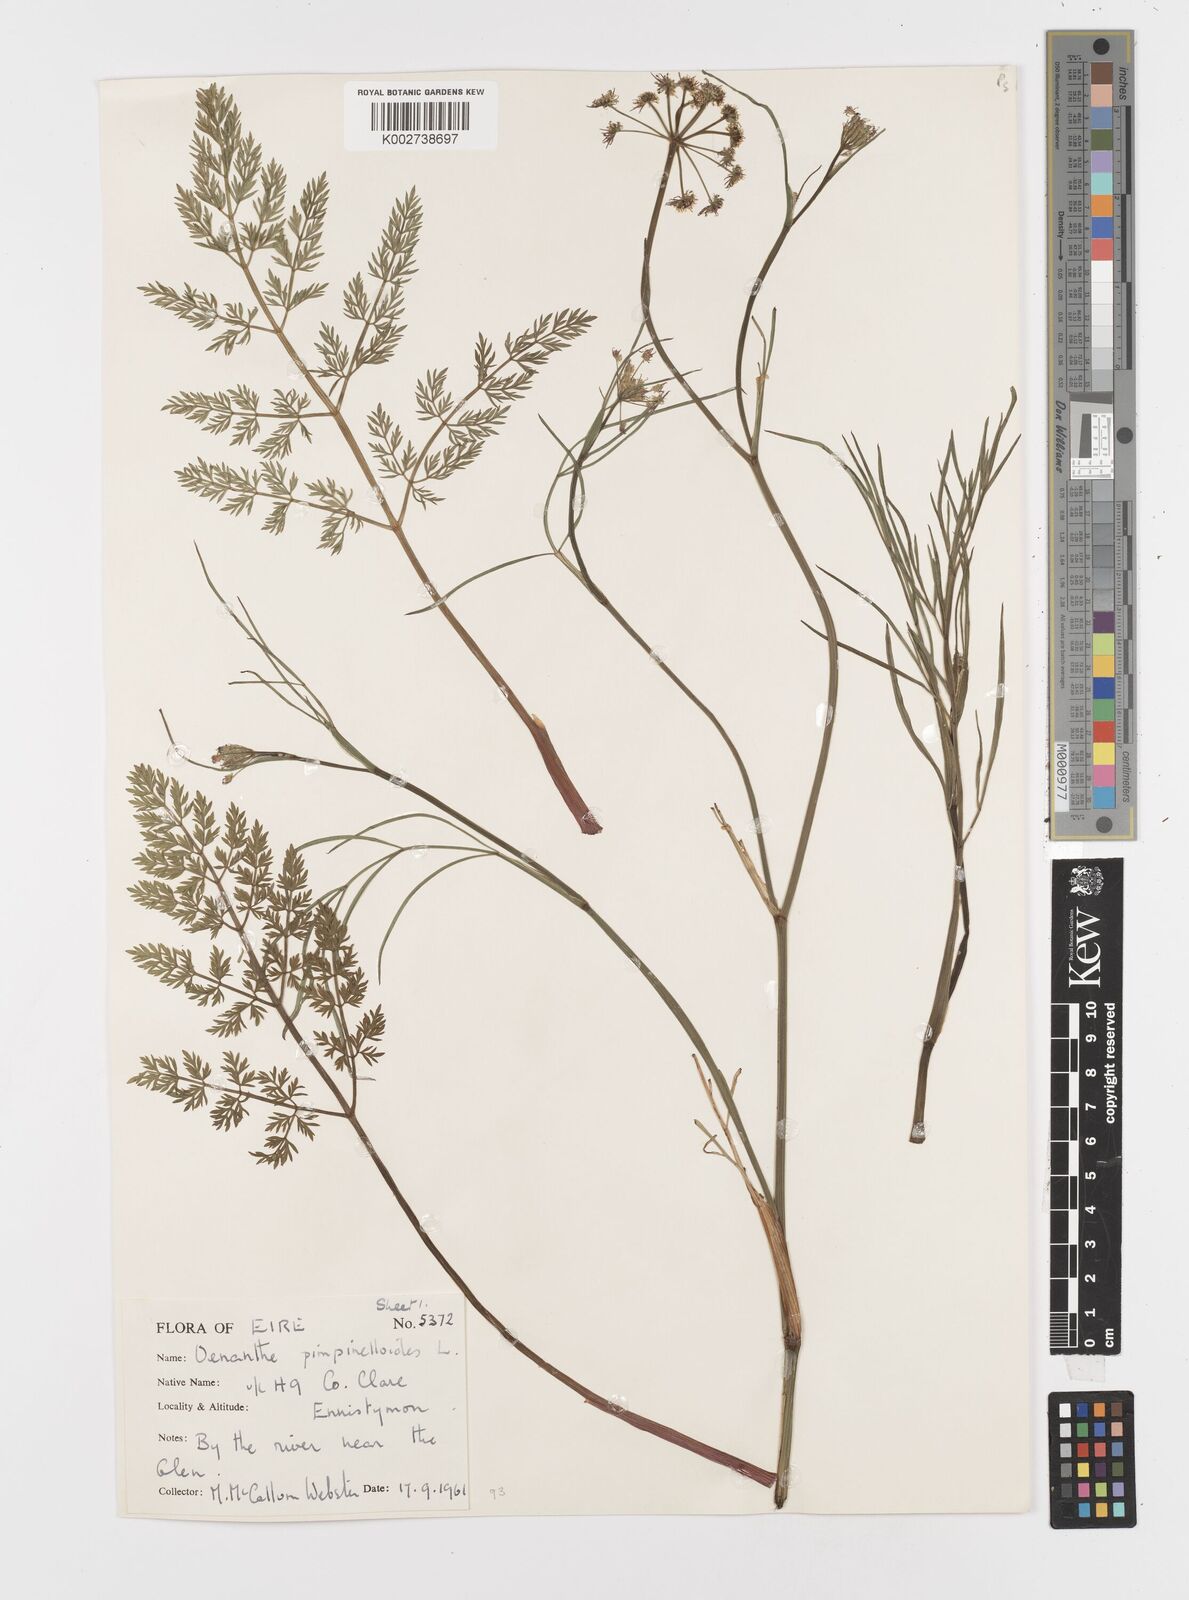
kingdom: Plantae
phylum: Tracheophyta
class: Magnoliopsida
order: Apiales
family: Apiaceae
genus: Oenanthe
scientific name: Oenanthe pimpinelloides
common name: Corky-fruited water-dropwort
